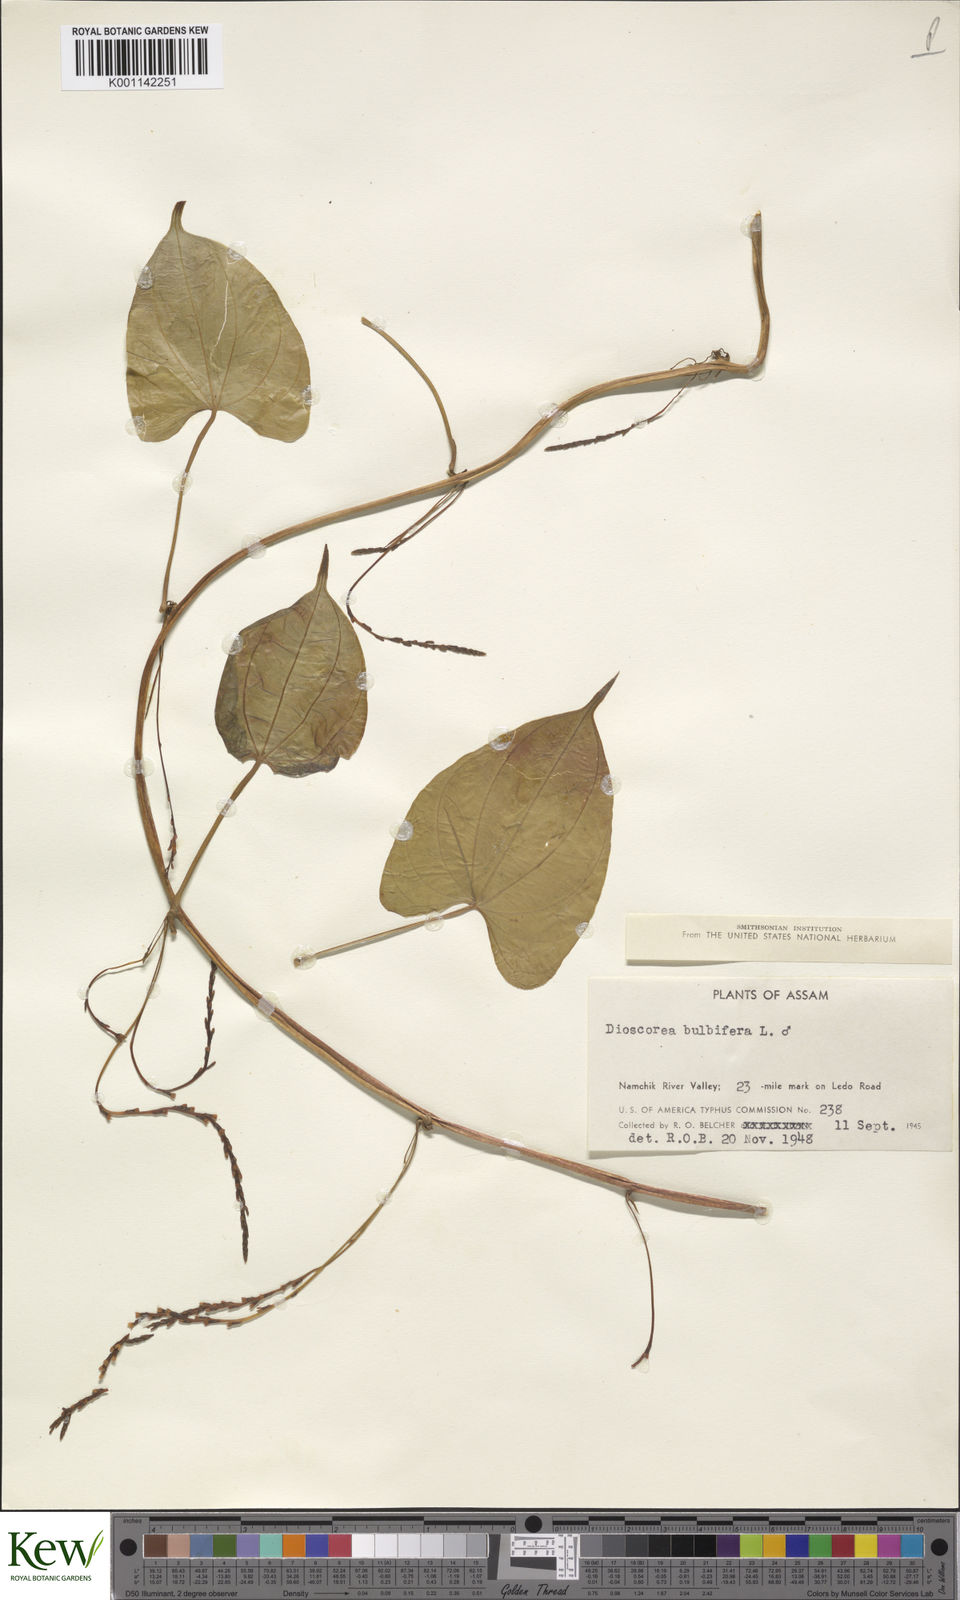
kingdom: Plantae
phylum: Tracheophyta
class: Liliopsida
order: Dioscoreales
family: Dioscoreaceae
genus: Dioscorea
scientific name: Dioscorea bulbifera
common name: Air yam
